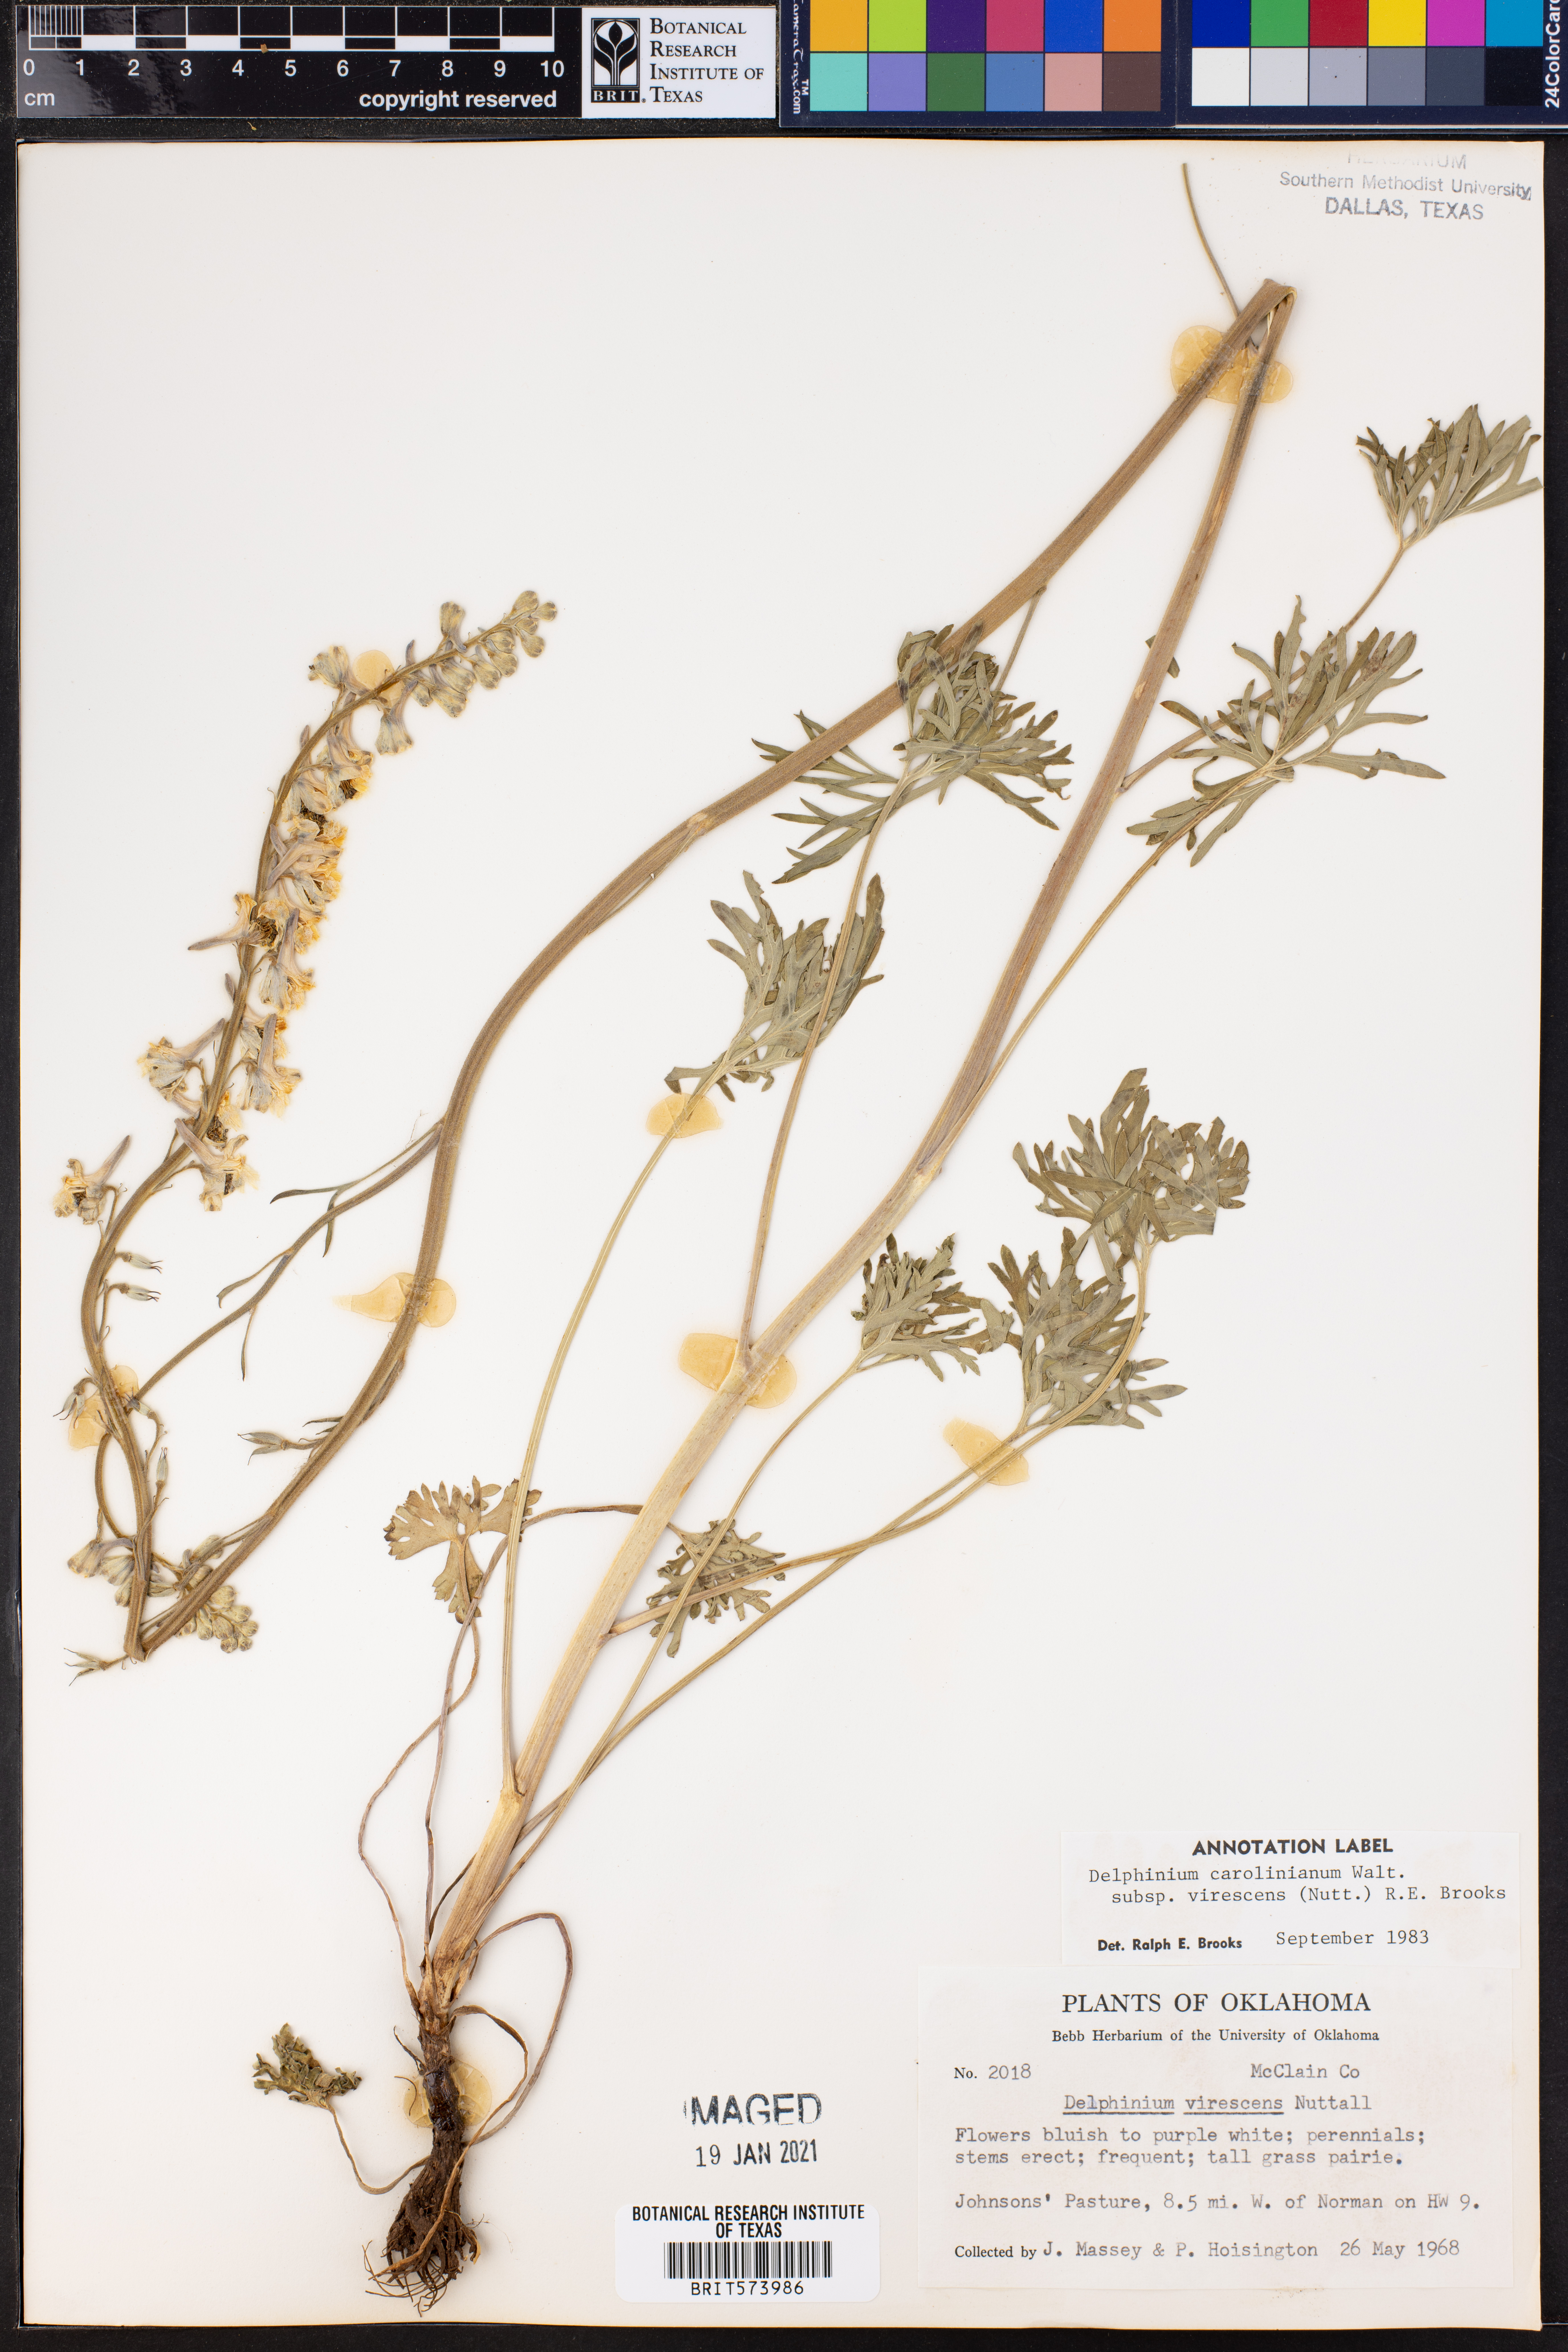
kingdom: Plantae
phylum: Tracheophyta
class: Magnoliopsida
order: Ranunculales
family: Ranunculaceae
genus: Delphinium
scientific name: Delphinium carolinianum
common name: Carolina larkspur
